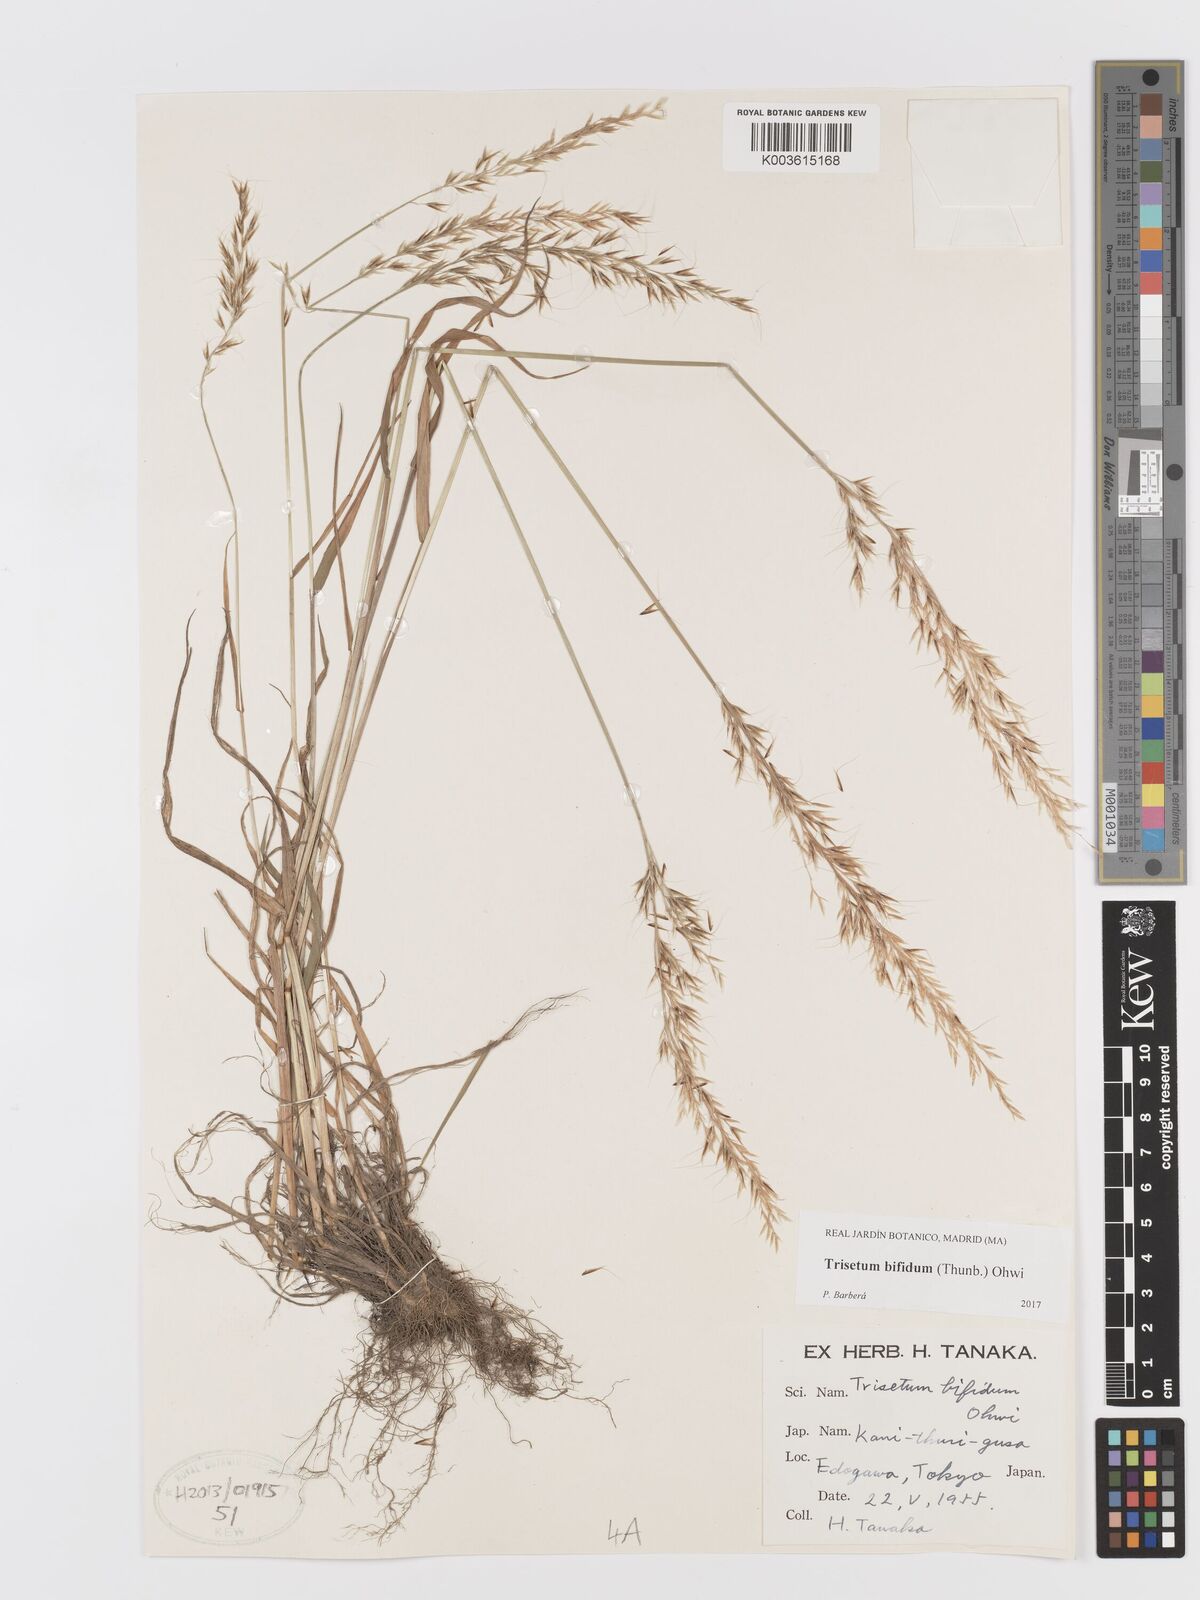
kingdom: Plantae
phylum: Tracheophyta
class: Liliopsida
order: Poales
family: Poaceae
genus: Sibirotrisetum
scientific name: Sibirotrisetum bifidum
